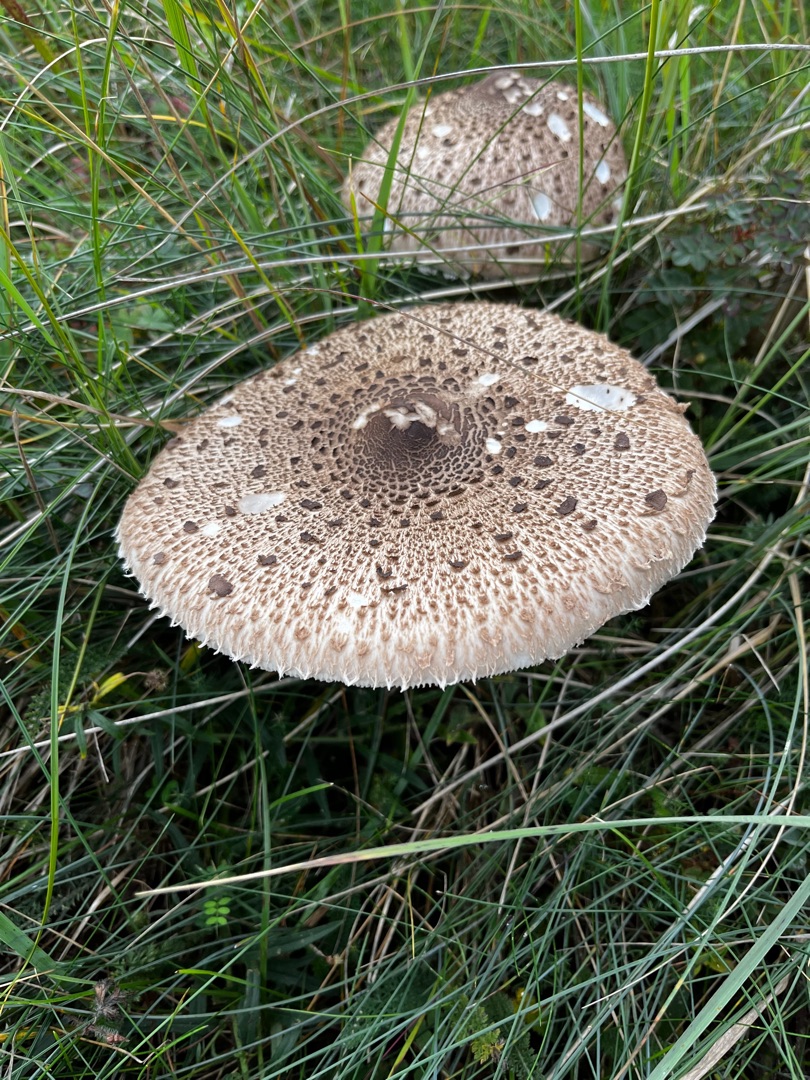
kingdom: Fungi
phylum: Basidiomycota
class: Agaricomycetes
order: Agaricales
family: Agaricaceae
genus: Macrolepiota
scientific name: Macrolepiota procera
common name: Stor kæmpeparasolhat
